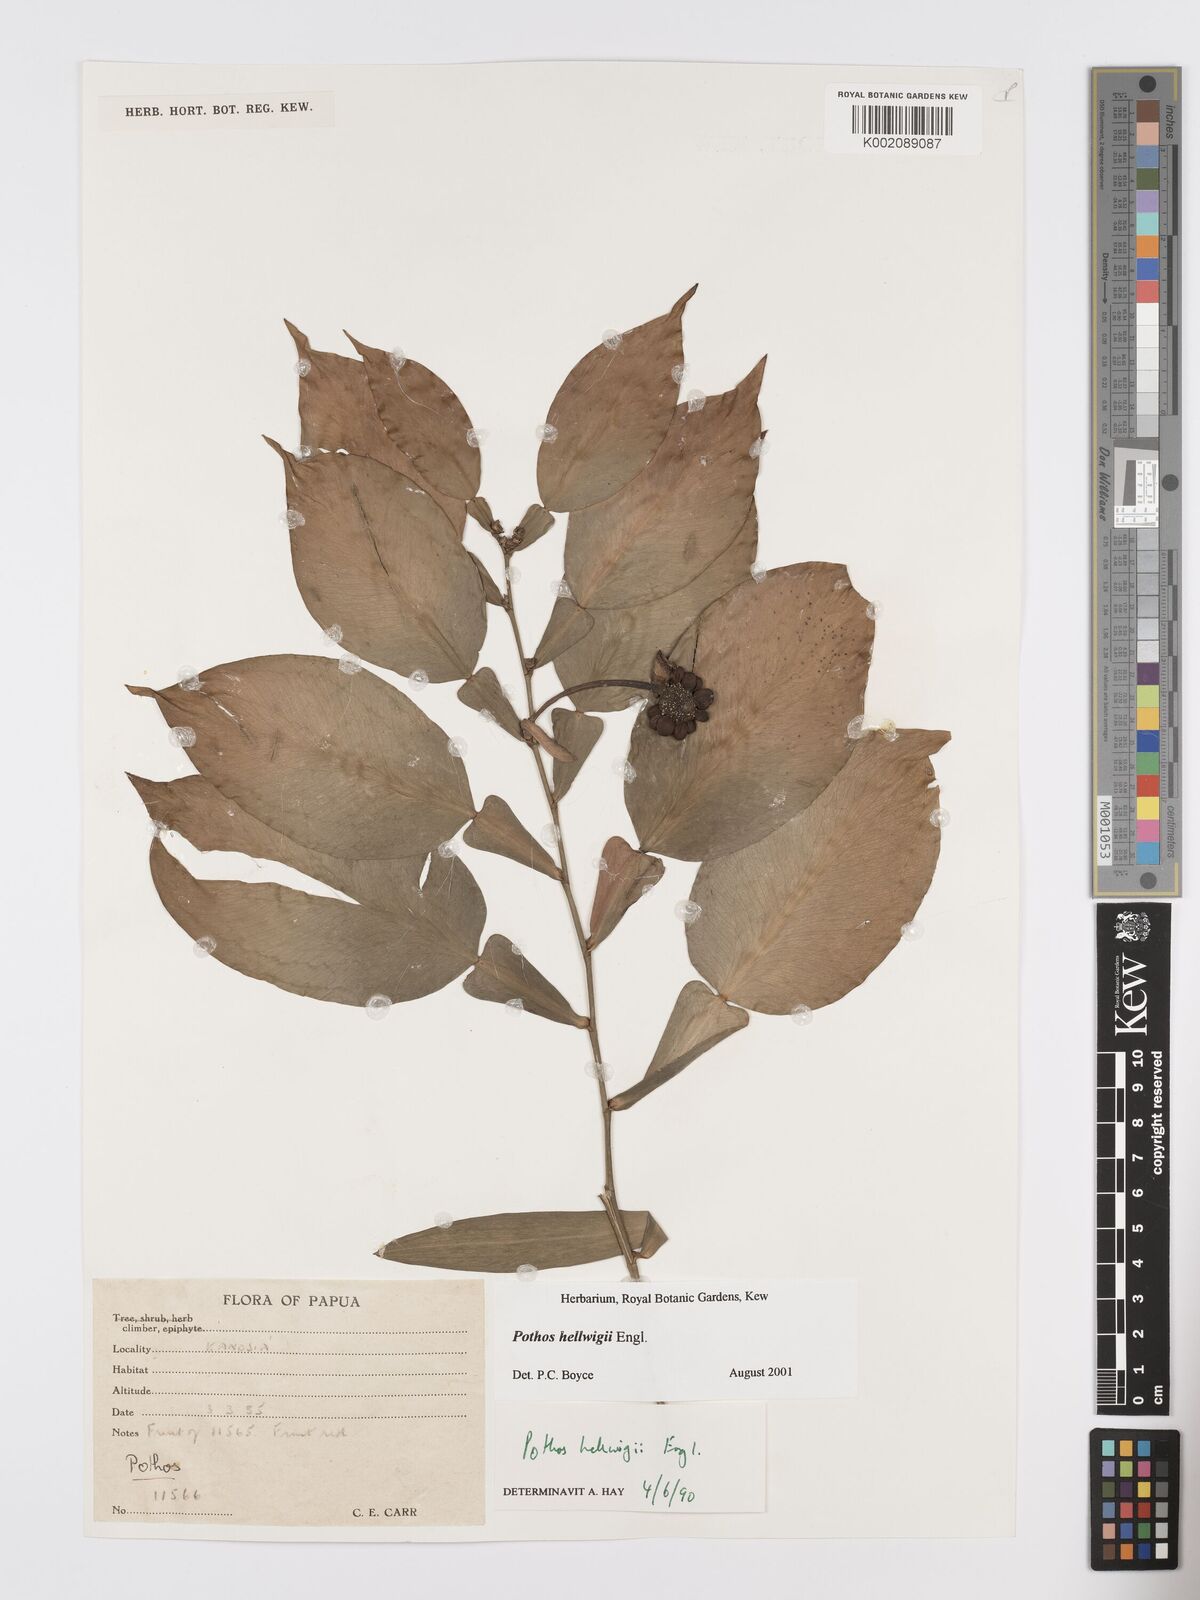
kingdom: Plantae
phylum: Tracheophyta
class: Liliopsida
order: Alismatales
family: Araceae
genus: Pothos
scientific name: Pothos hellwigii
